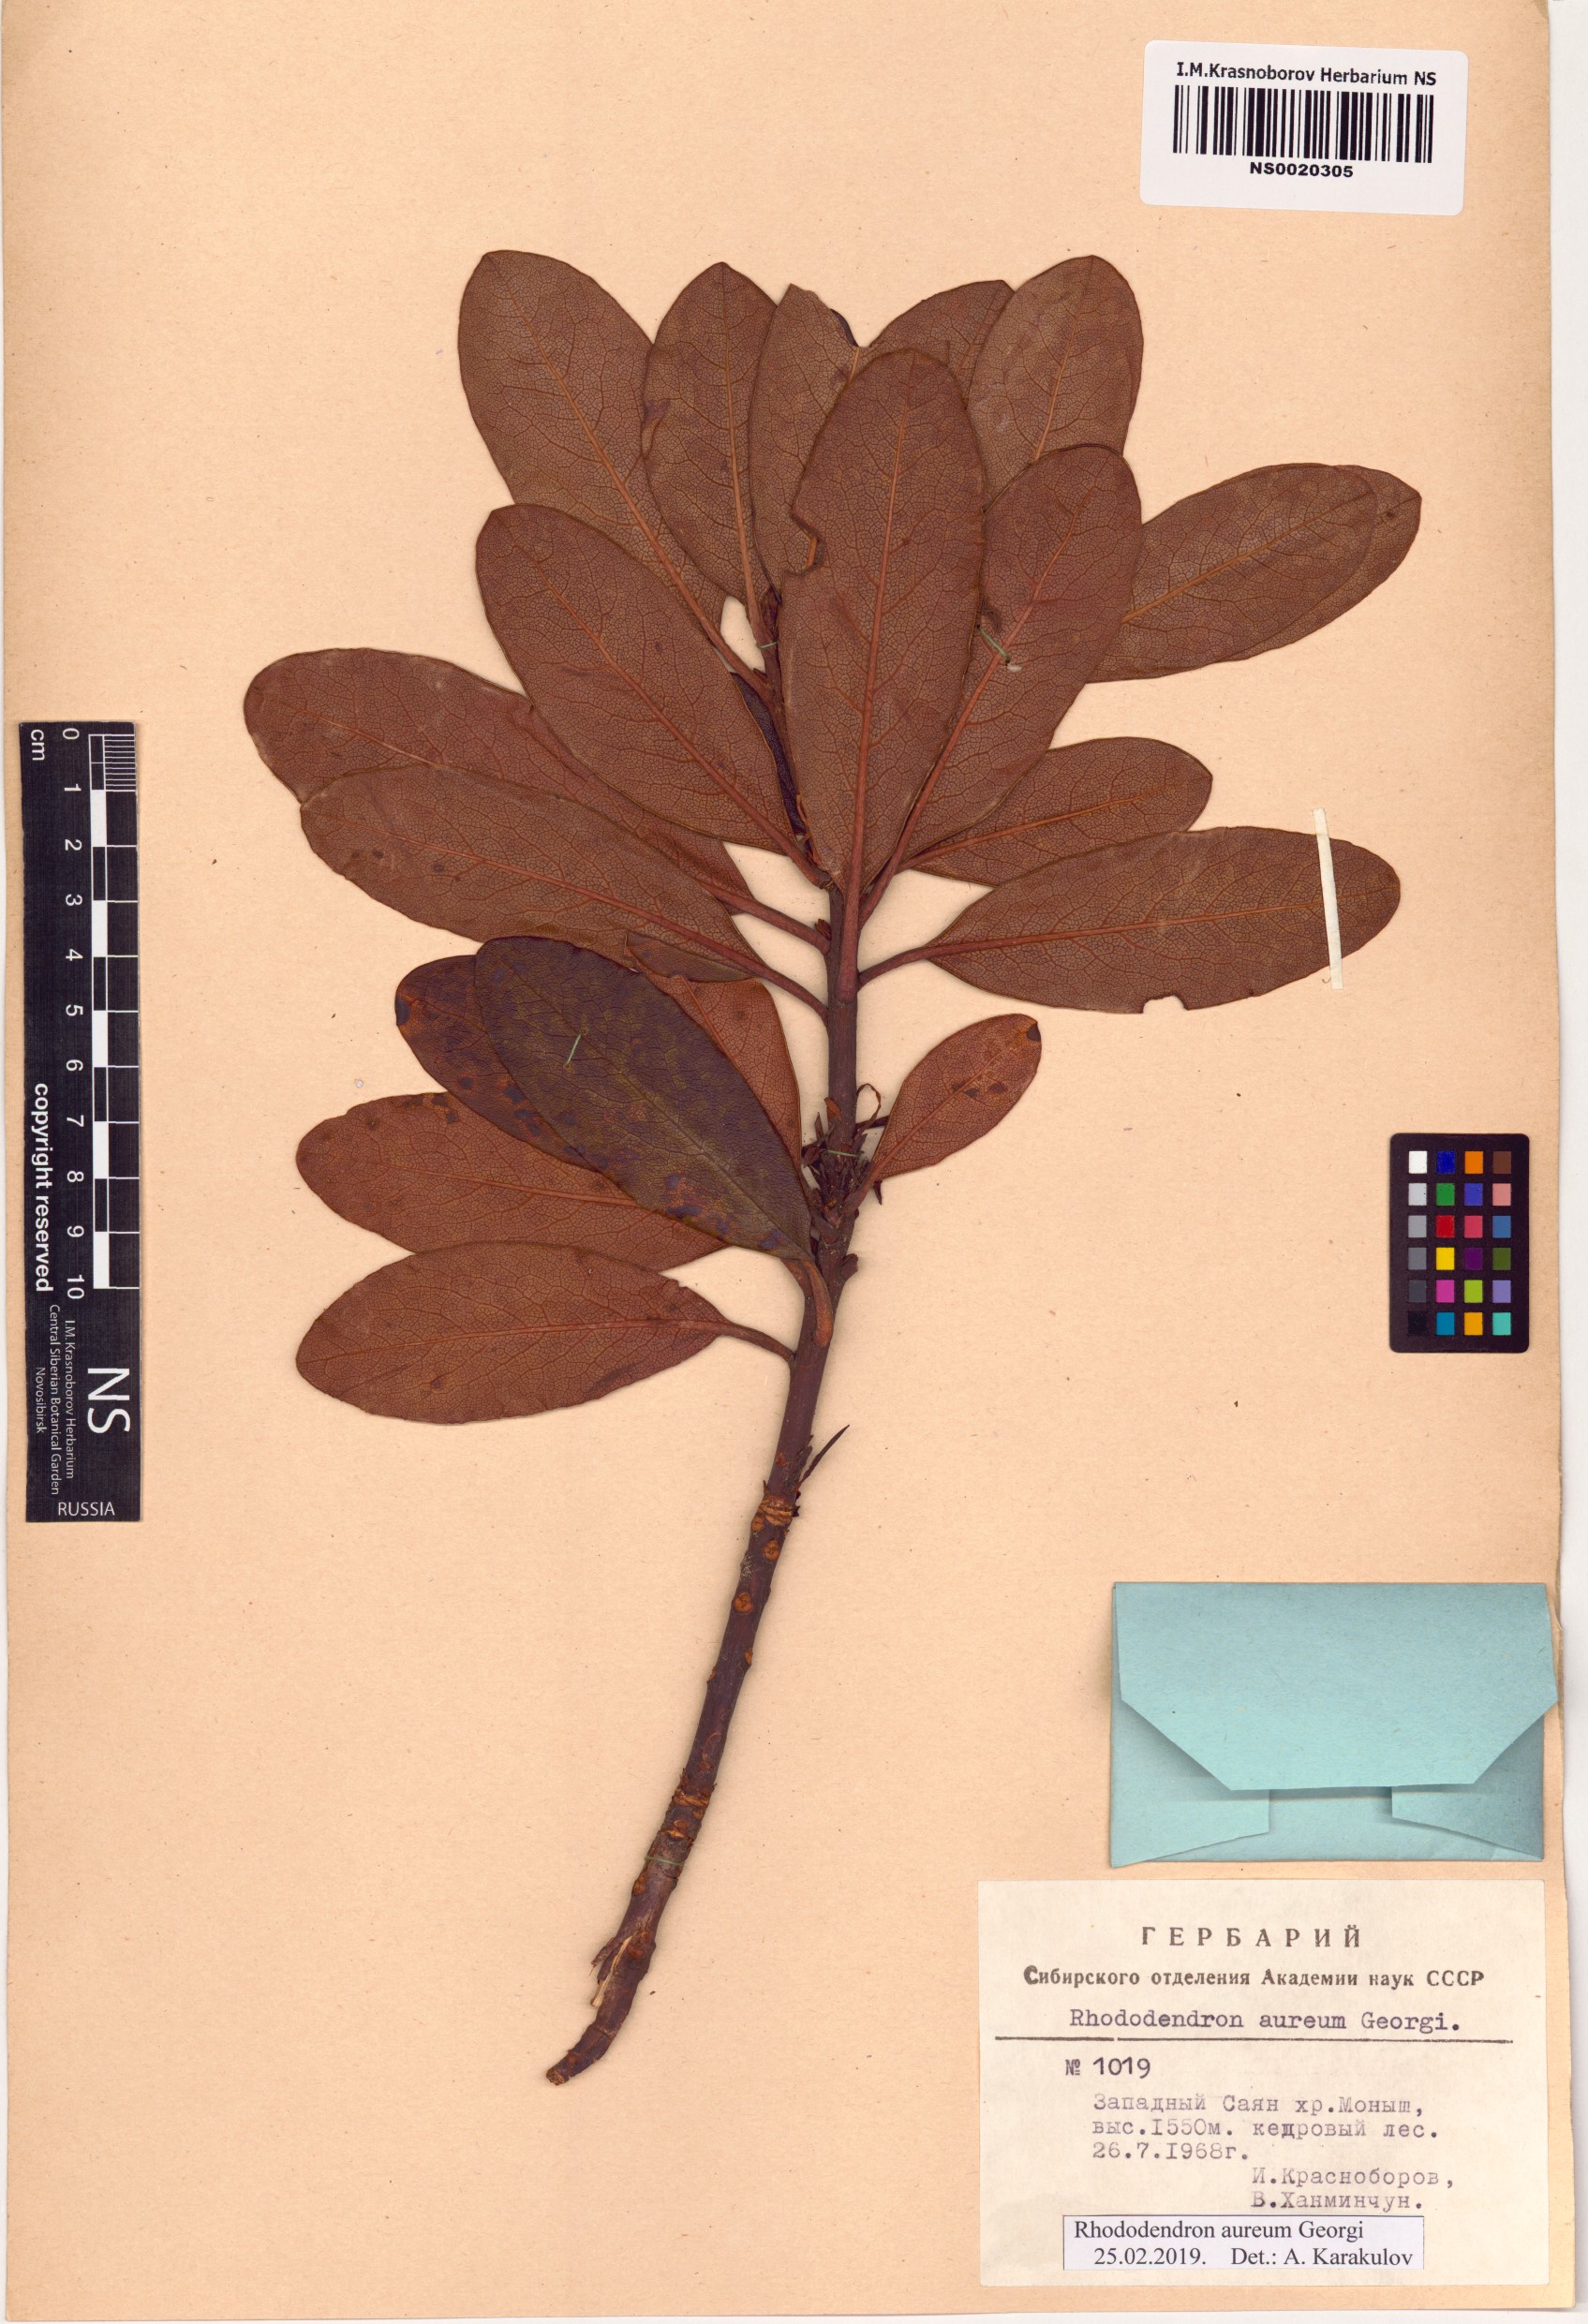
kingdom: Plantae
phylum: Tracheophyta
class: Magnoliopsida
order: Ericales
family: Ericaceae
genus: Rhododendron
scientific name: Rhododendron aureum
